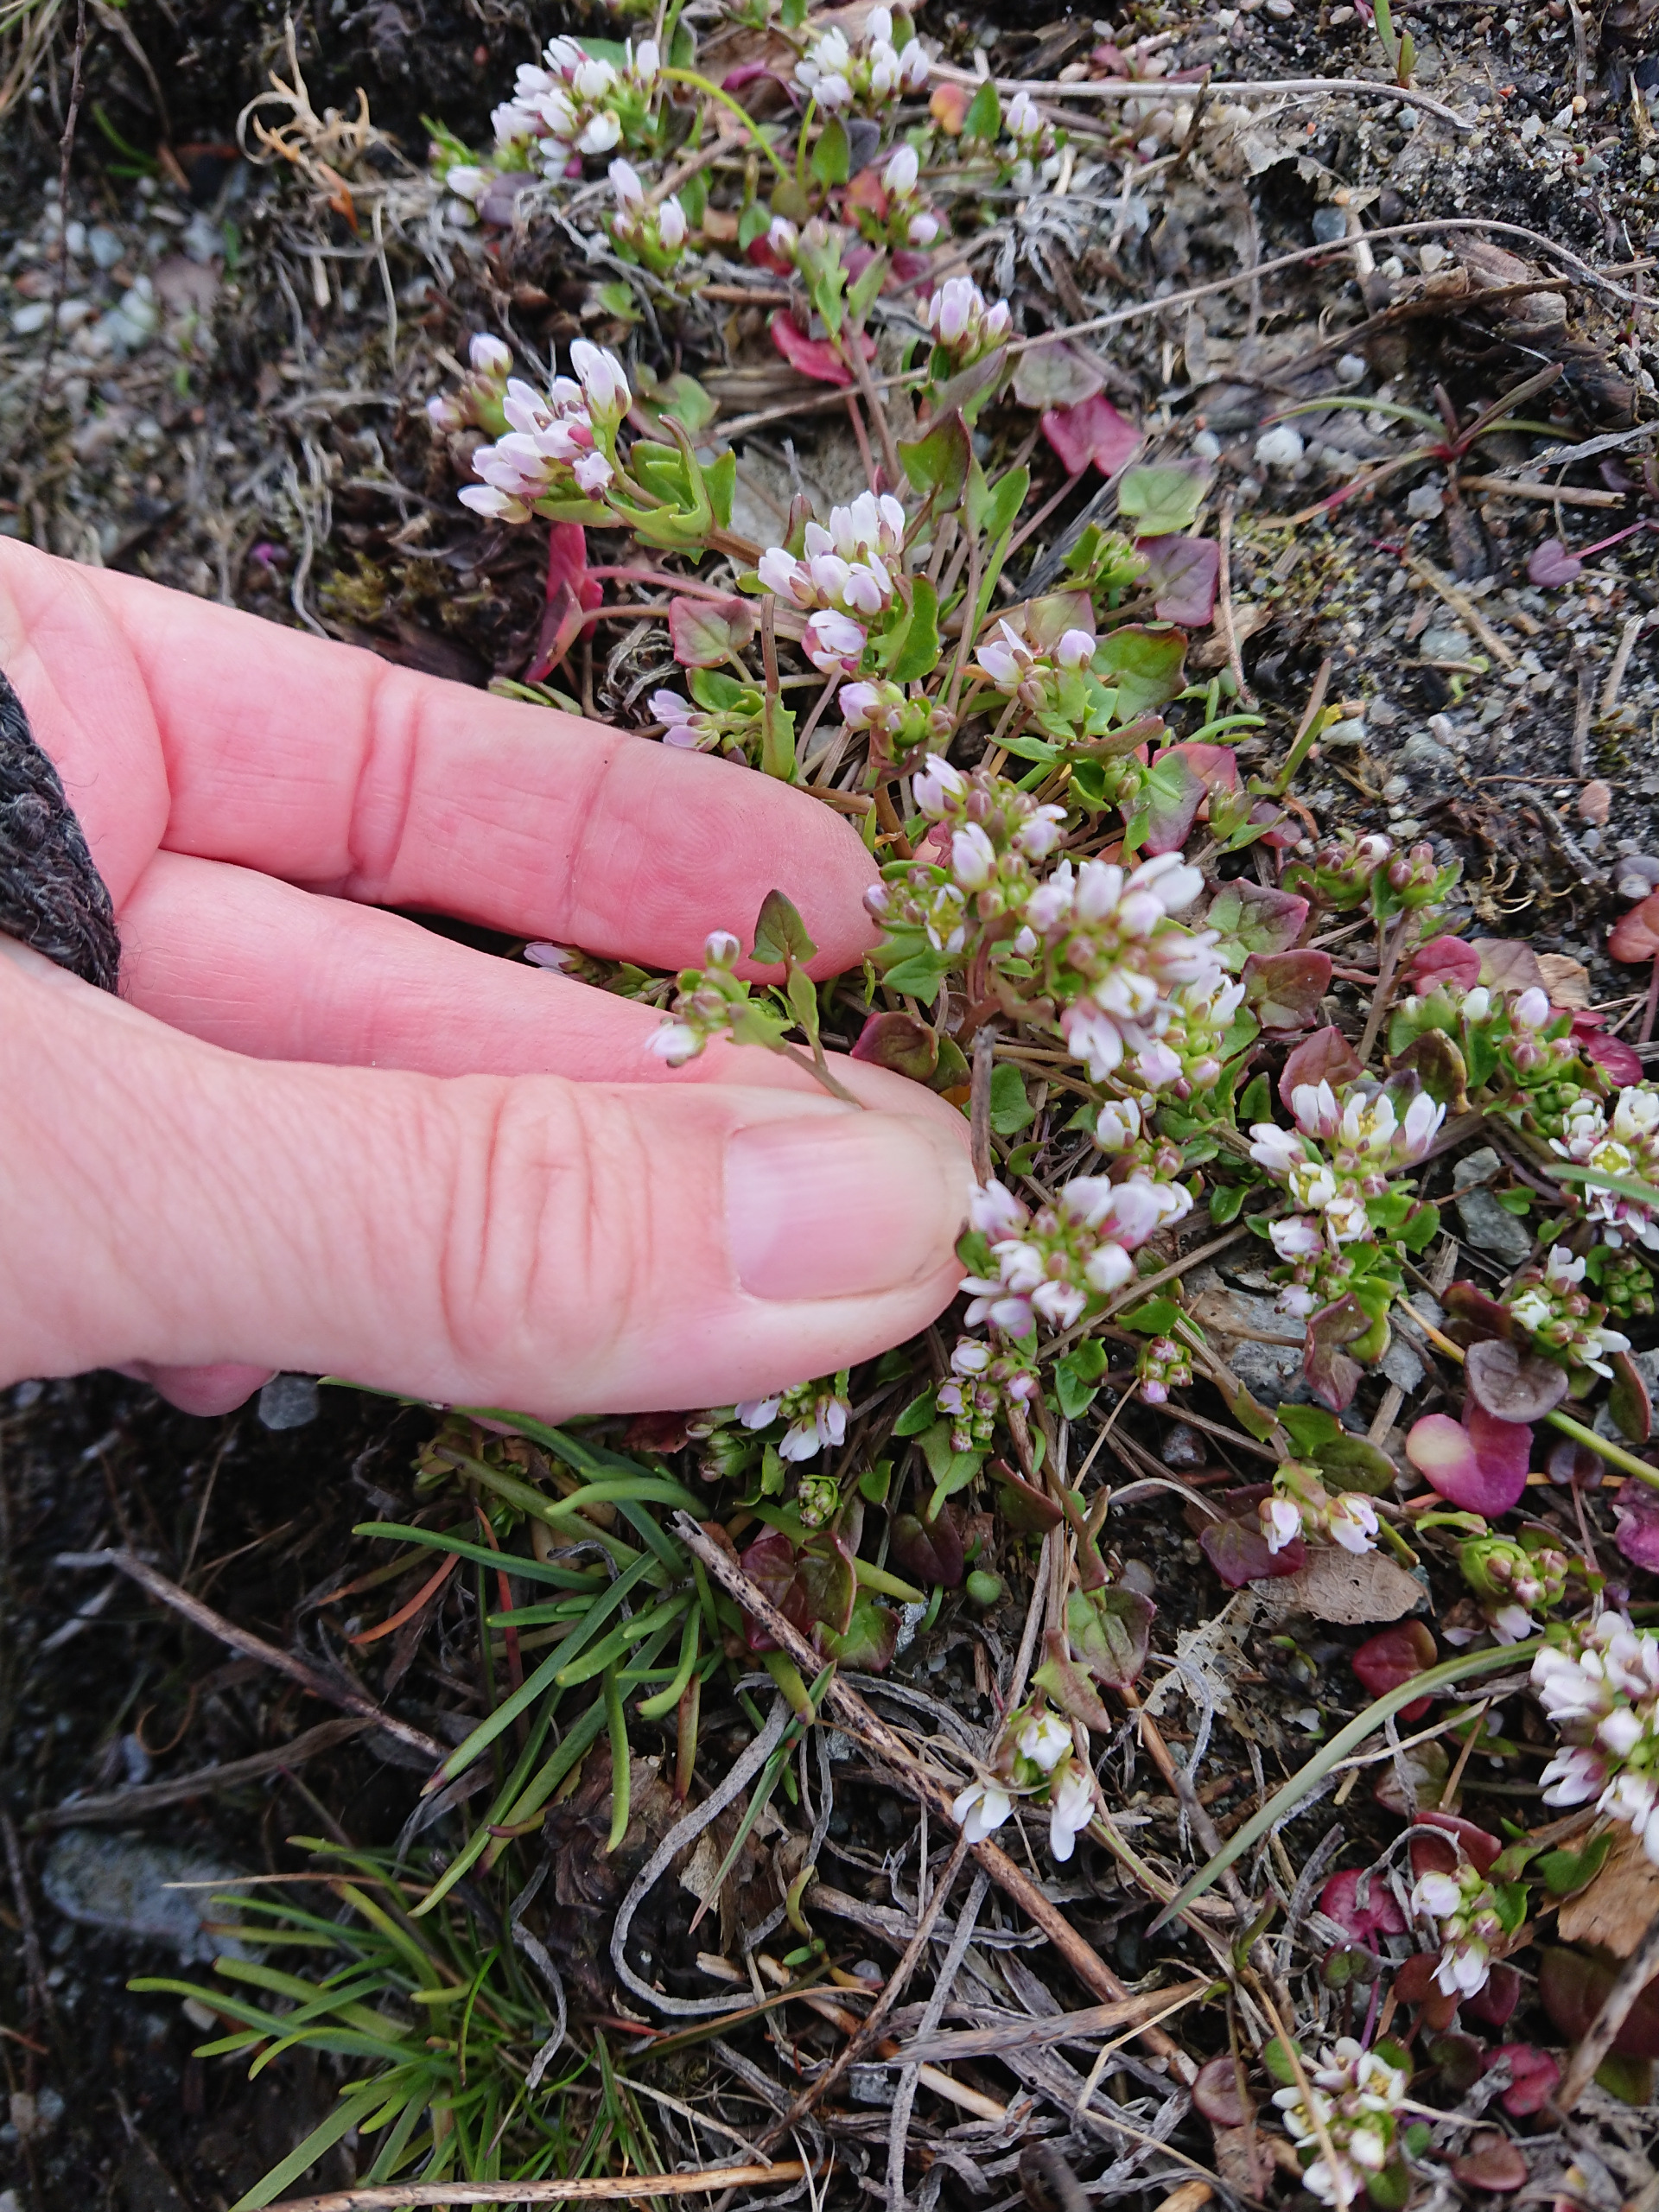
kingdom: Plantae
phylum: Tracheophyta
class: Magnoliopsida
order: Brassicales
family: Brassicaceae
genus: Cochlearia
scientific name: Cochlearia danica
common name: Dansk kokleare
